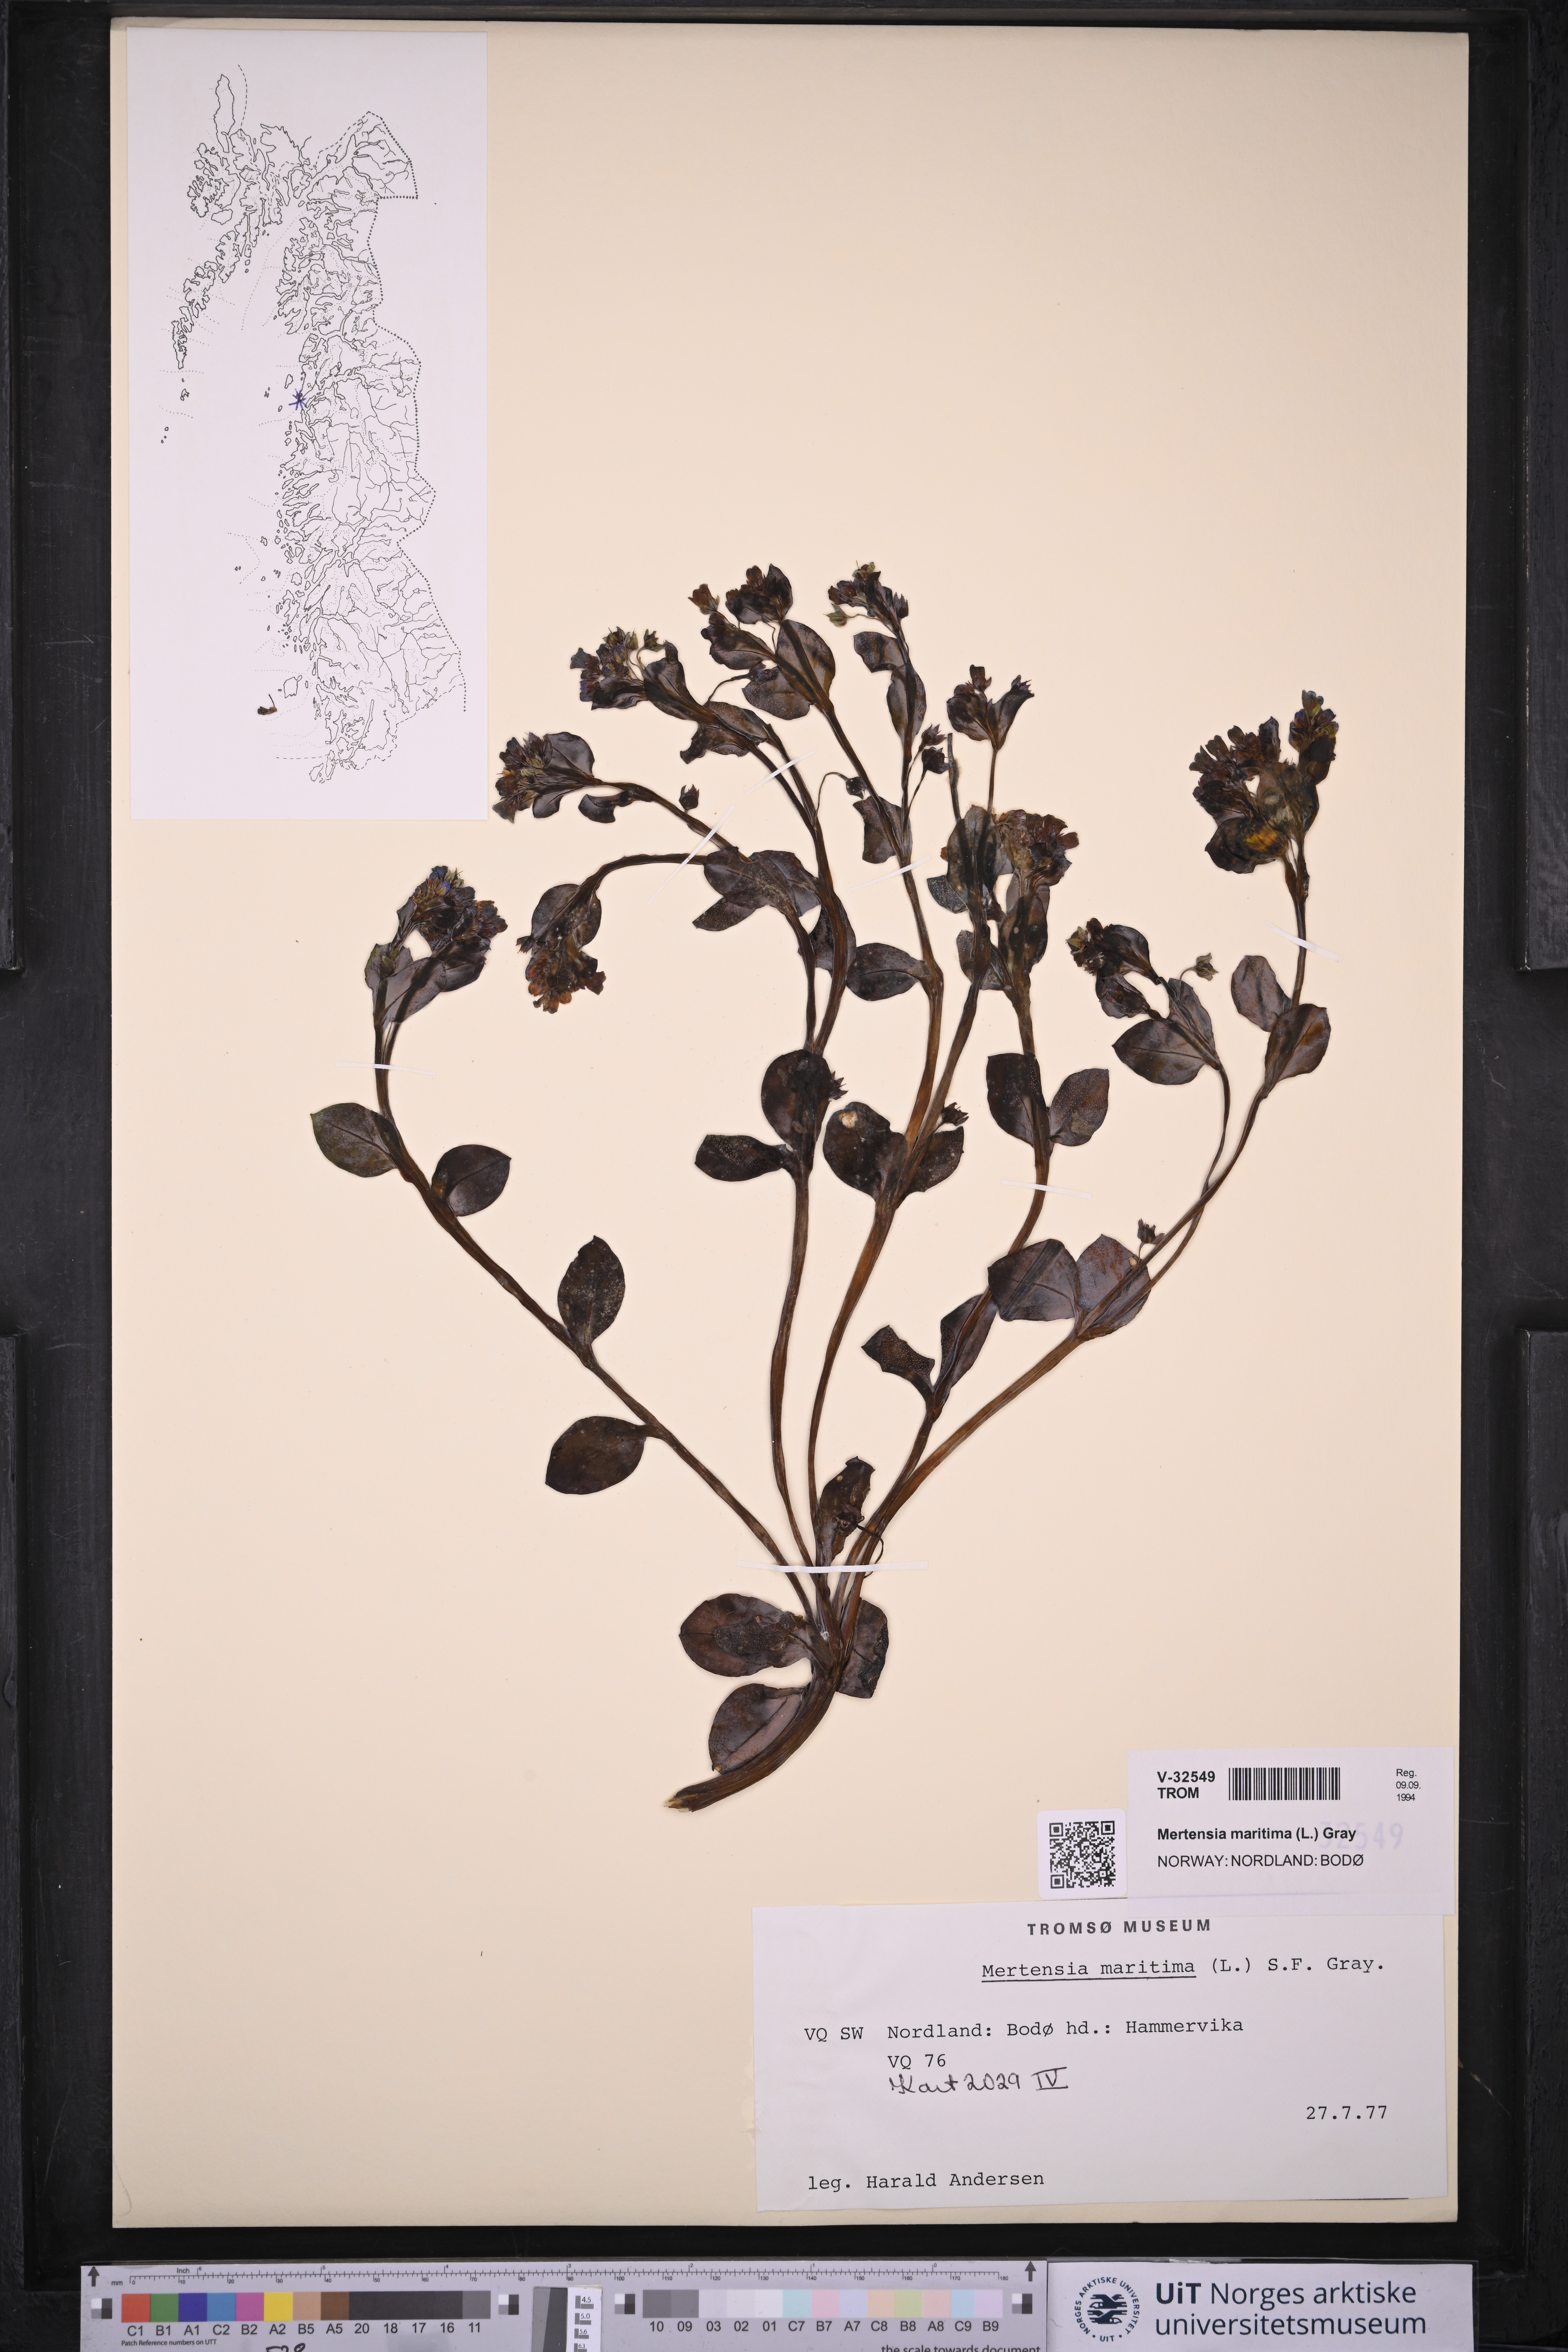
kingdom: Plantae
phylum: Tracheophyta
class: Magnoliopsida
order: Boraginales
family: Boraginaceae
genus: Mertensia
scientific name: Mertensia maritima
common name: Oysterplant
